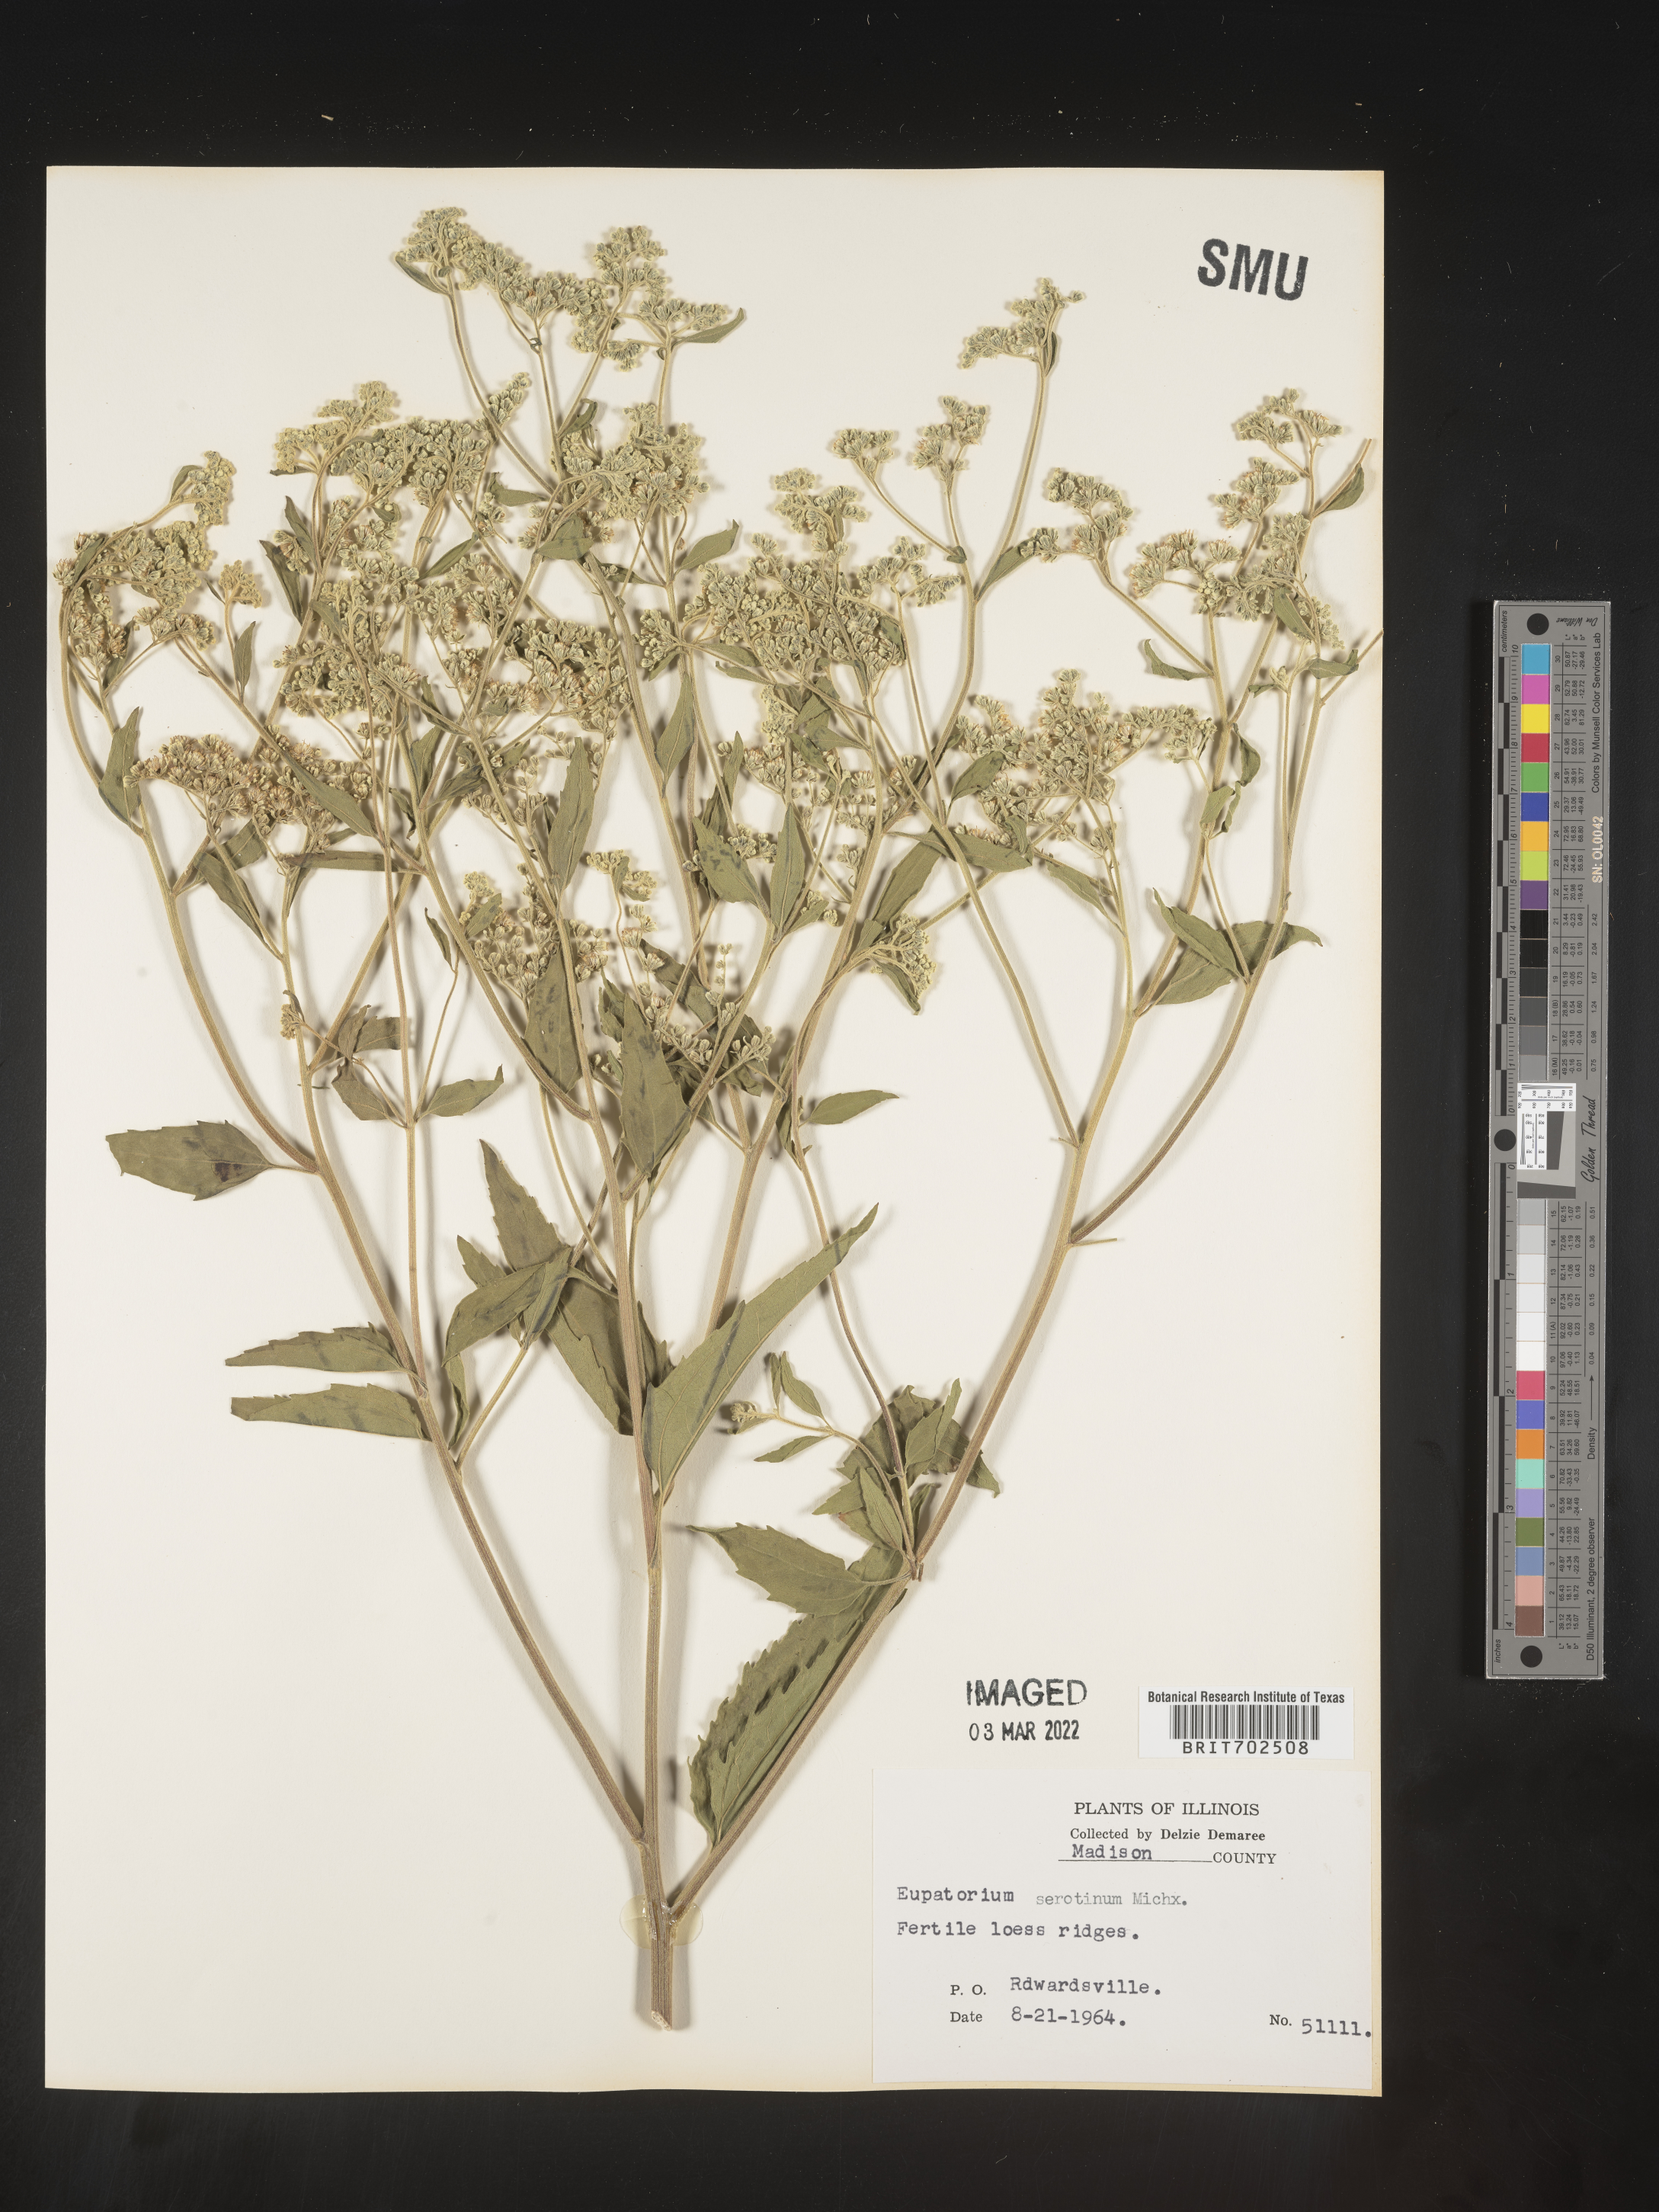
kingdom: Plantae
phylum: Tracheophyta
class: Magnoliopsida
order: Asterales
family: Asteraceae
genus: Eupatorium
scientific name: Eupatorium serotinum
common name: Late boneset
